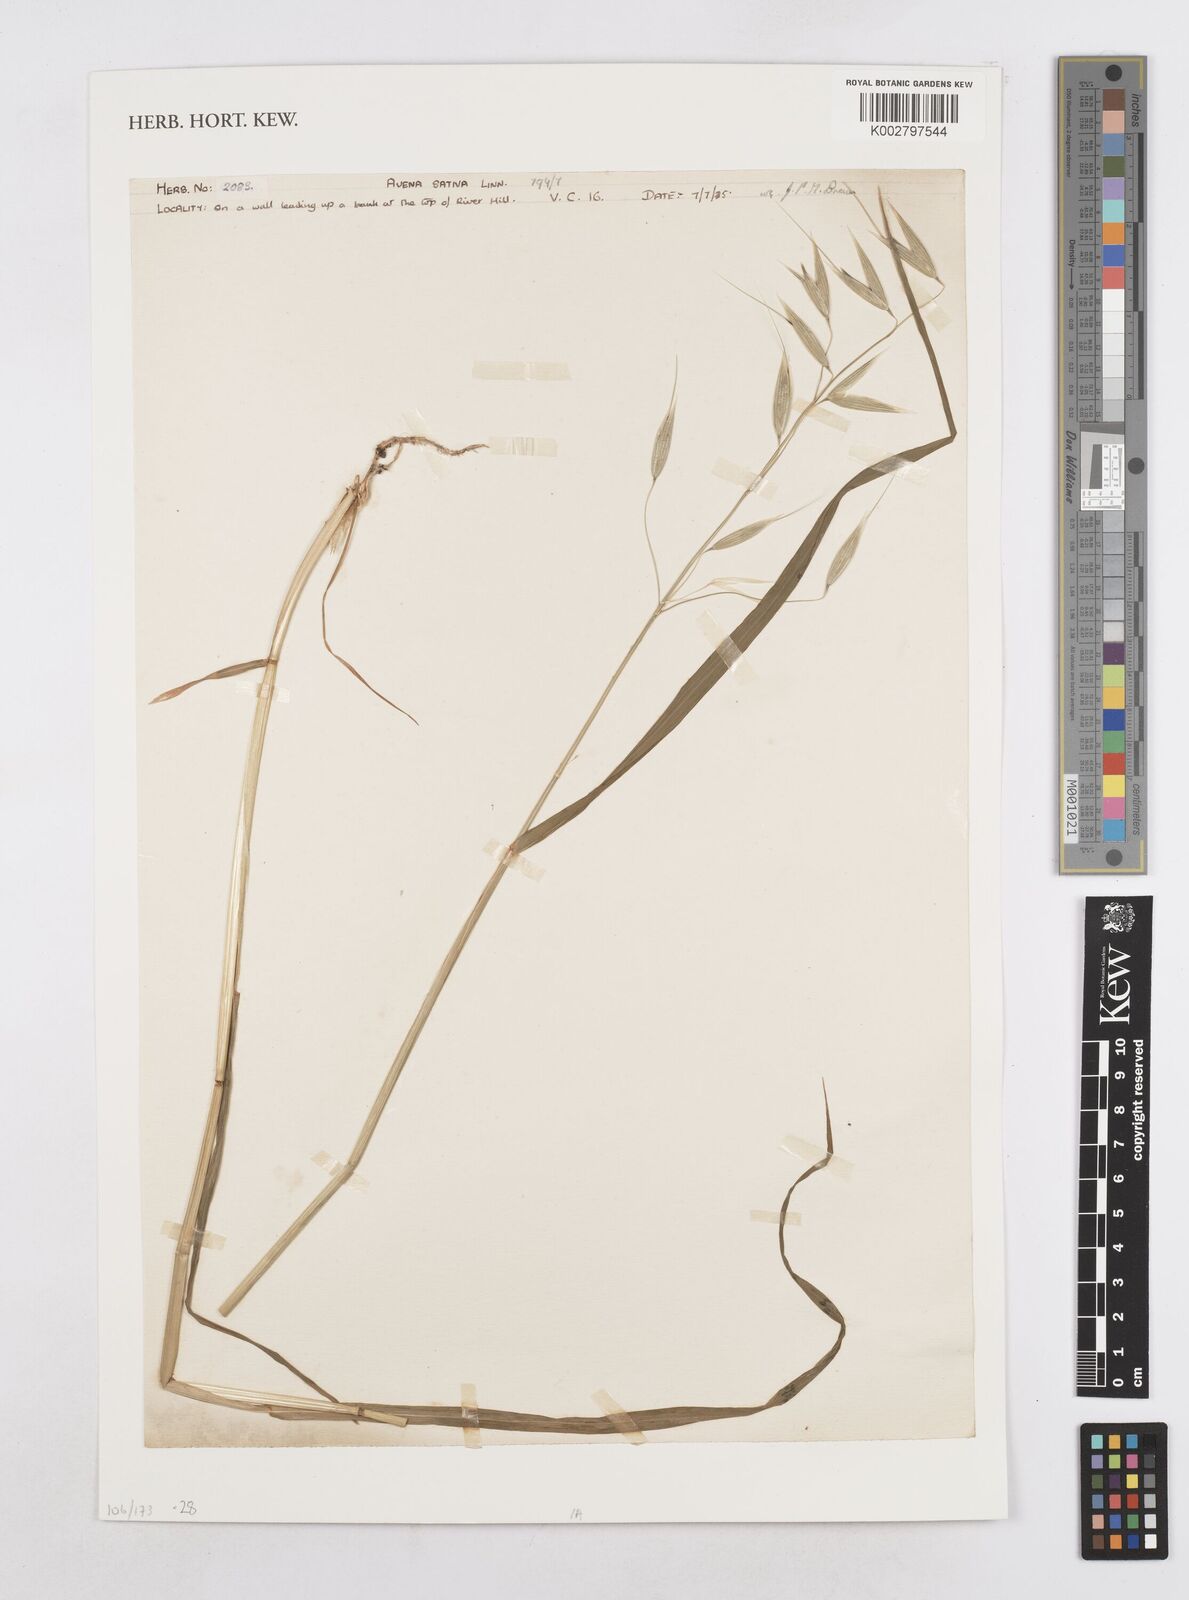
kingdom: Plantae
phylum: Tracheophyta
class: Liliopsida
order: Poales
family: Poaceae
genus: Avena
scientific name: Avena sativa
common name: Oat
